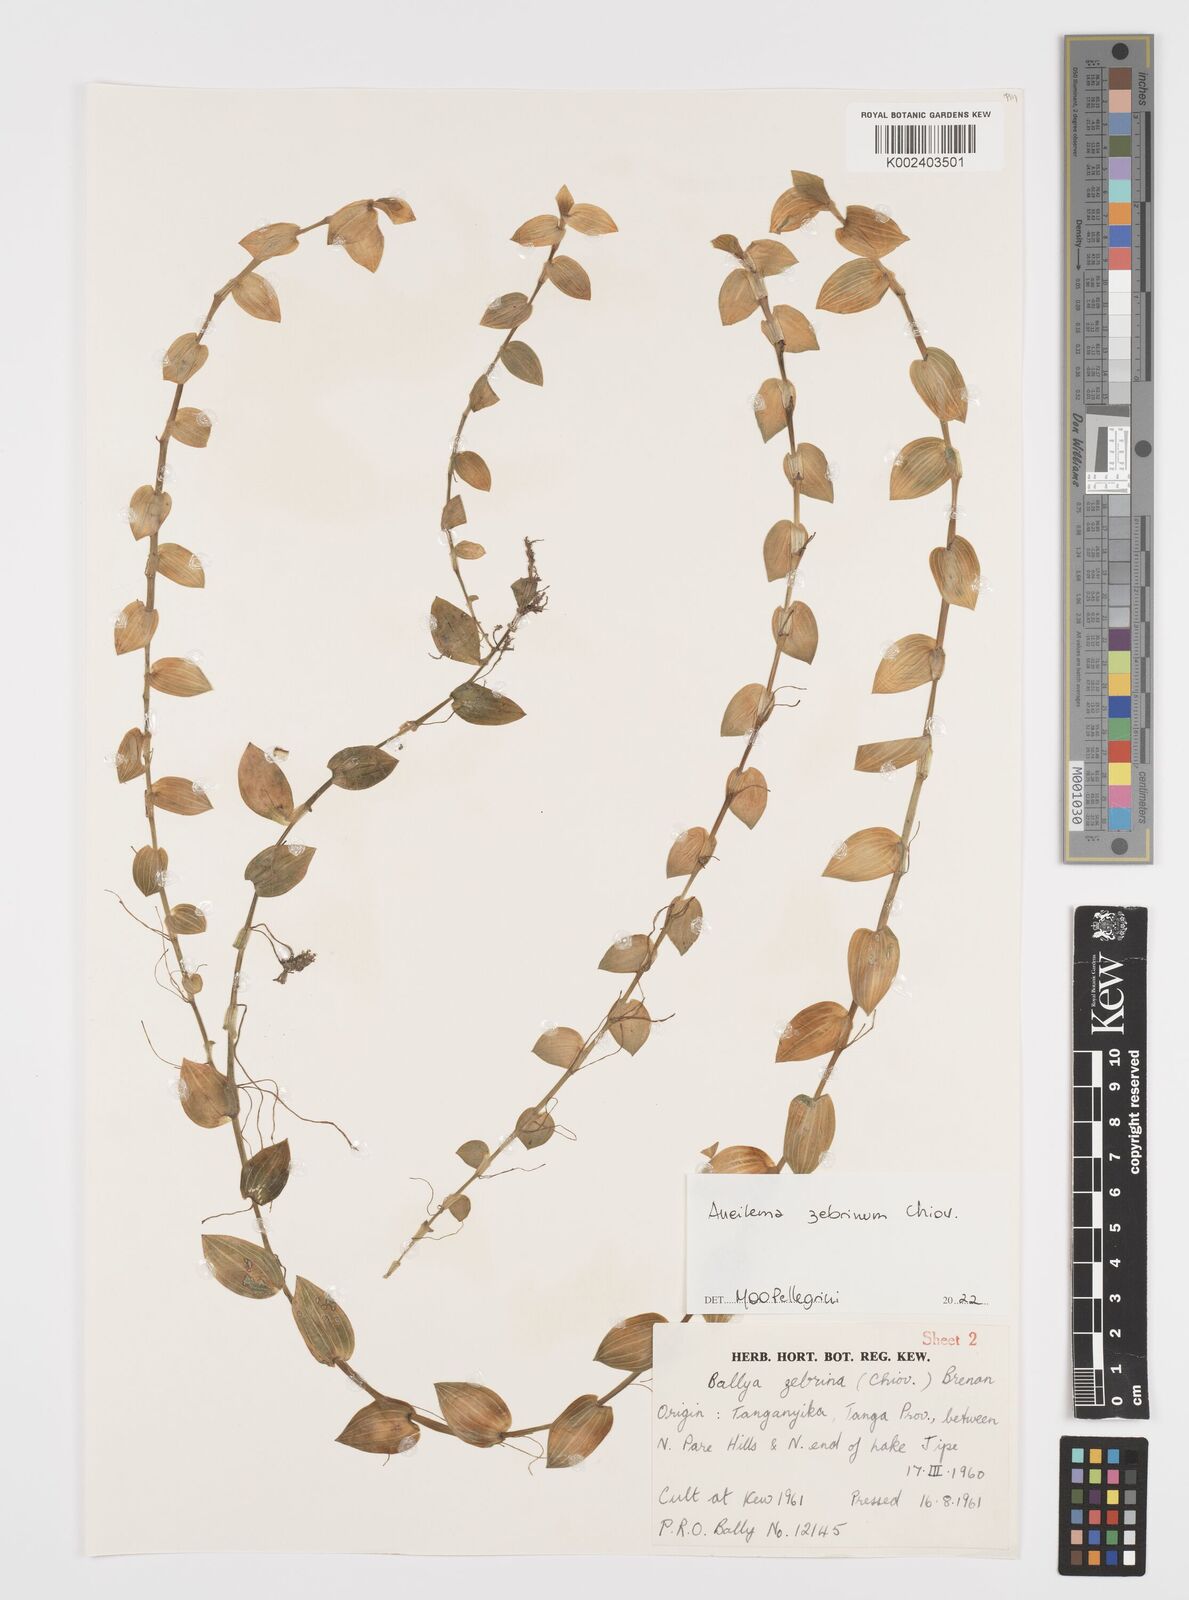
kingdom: Plantae
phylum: Tracheophyta
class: Liliopsida
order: Commelinales
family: Commelinaceae
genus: Aneilema
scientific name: Aneilema zebrinum
